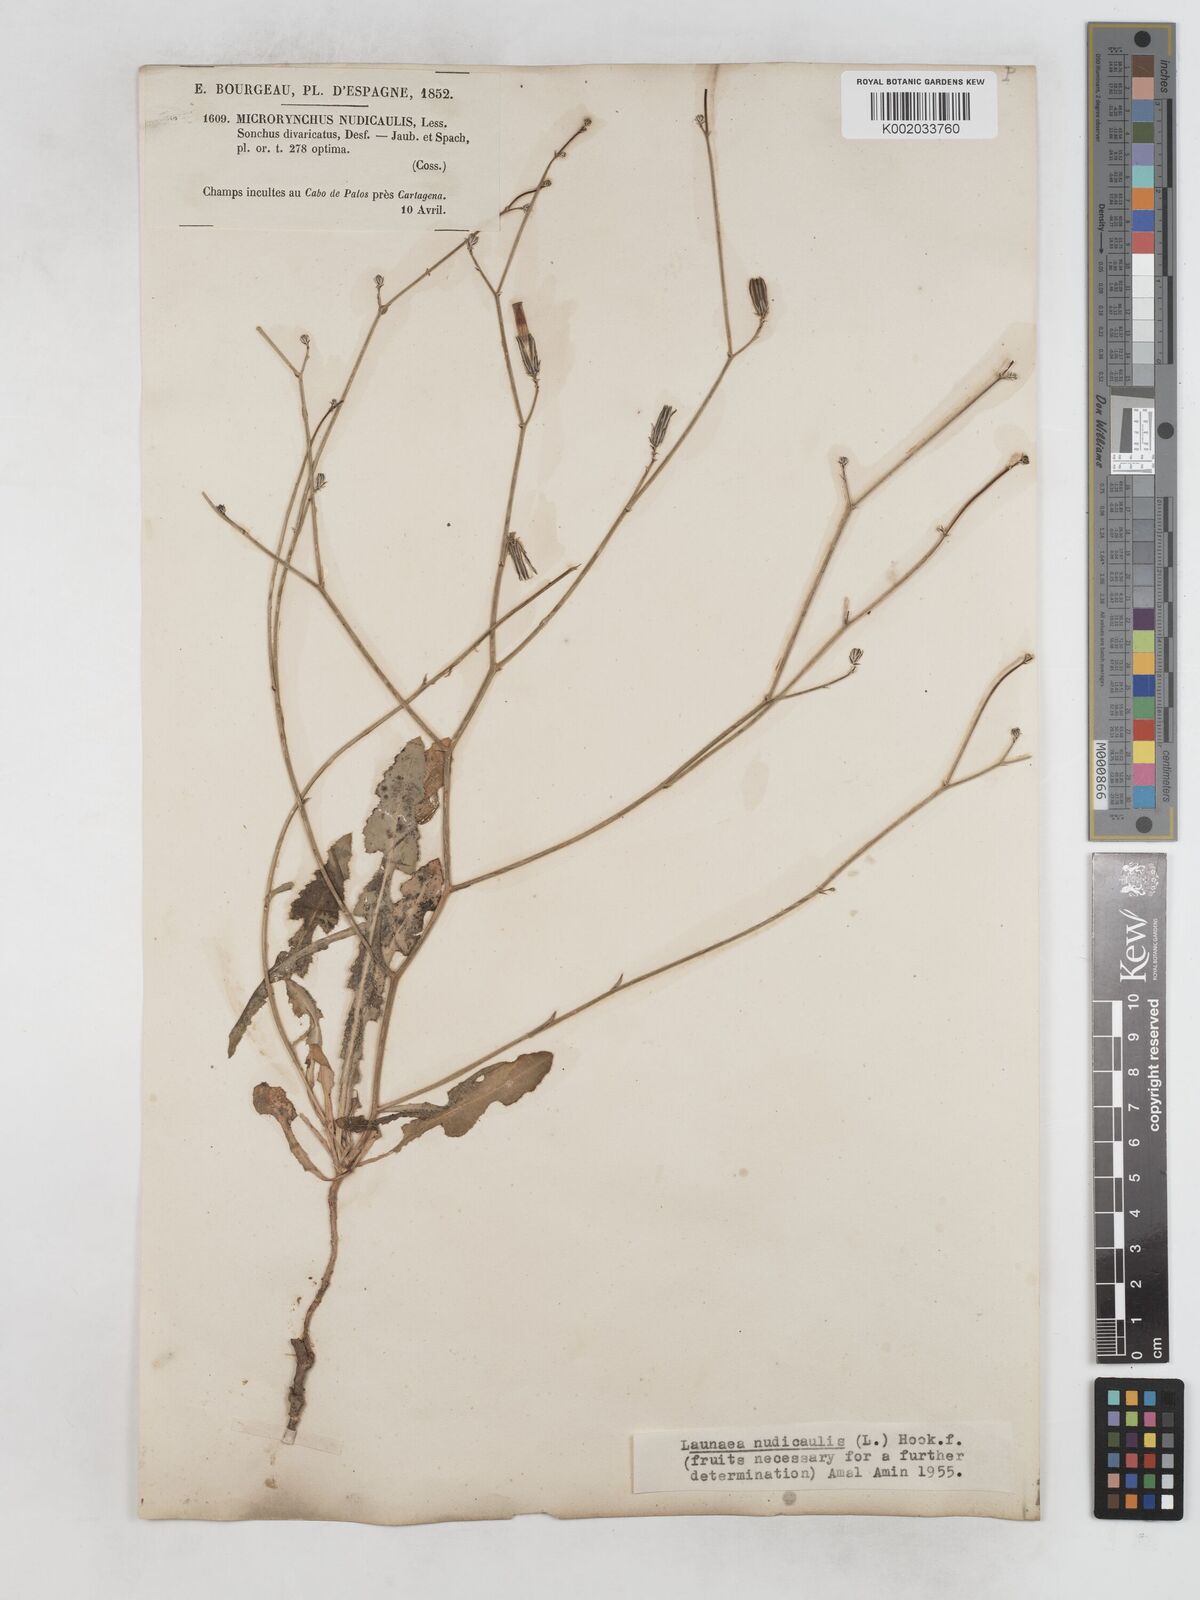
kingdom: Plantae
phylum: Tracheophyta
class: Magnoliopsida
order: Asterales
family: Asteraceae
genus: Launaea
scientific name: Launaea nudicaulis
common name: Naked launaea
